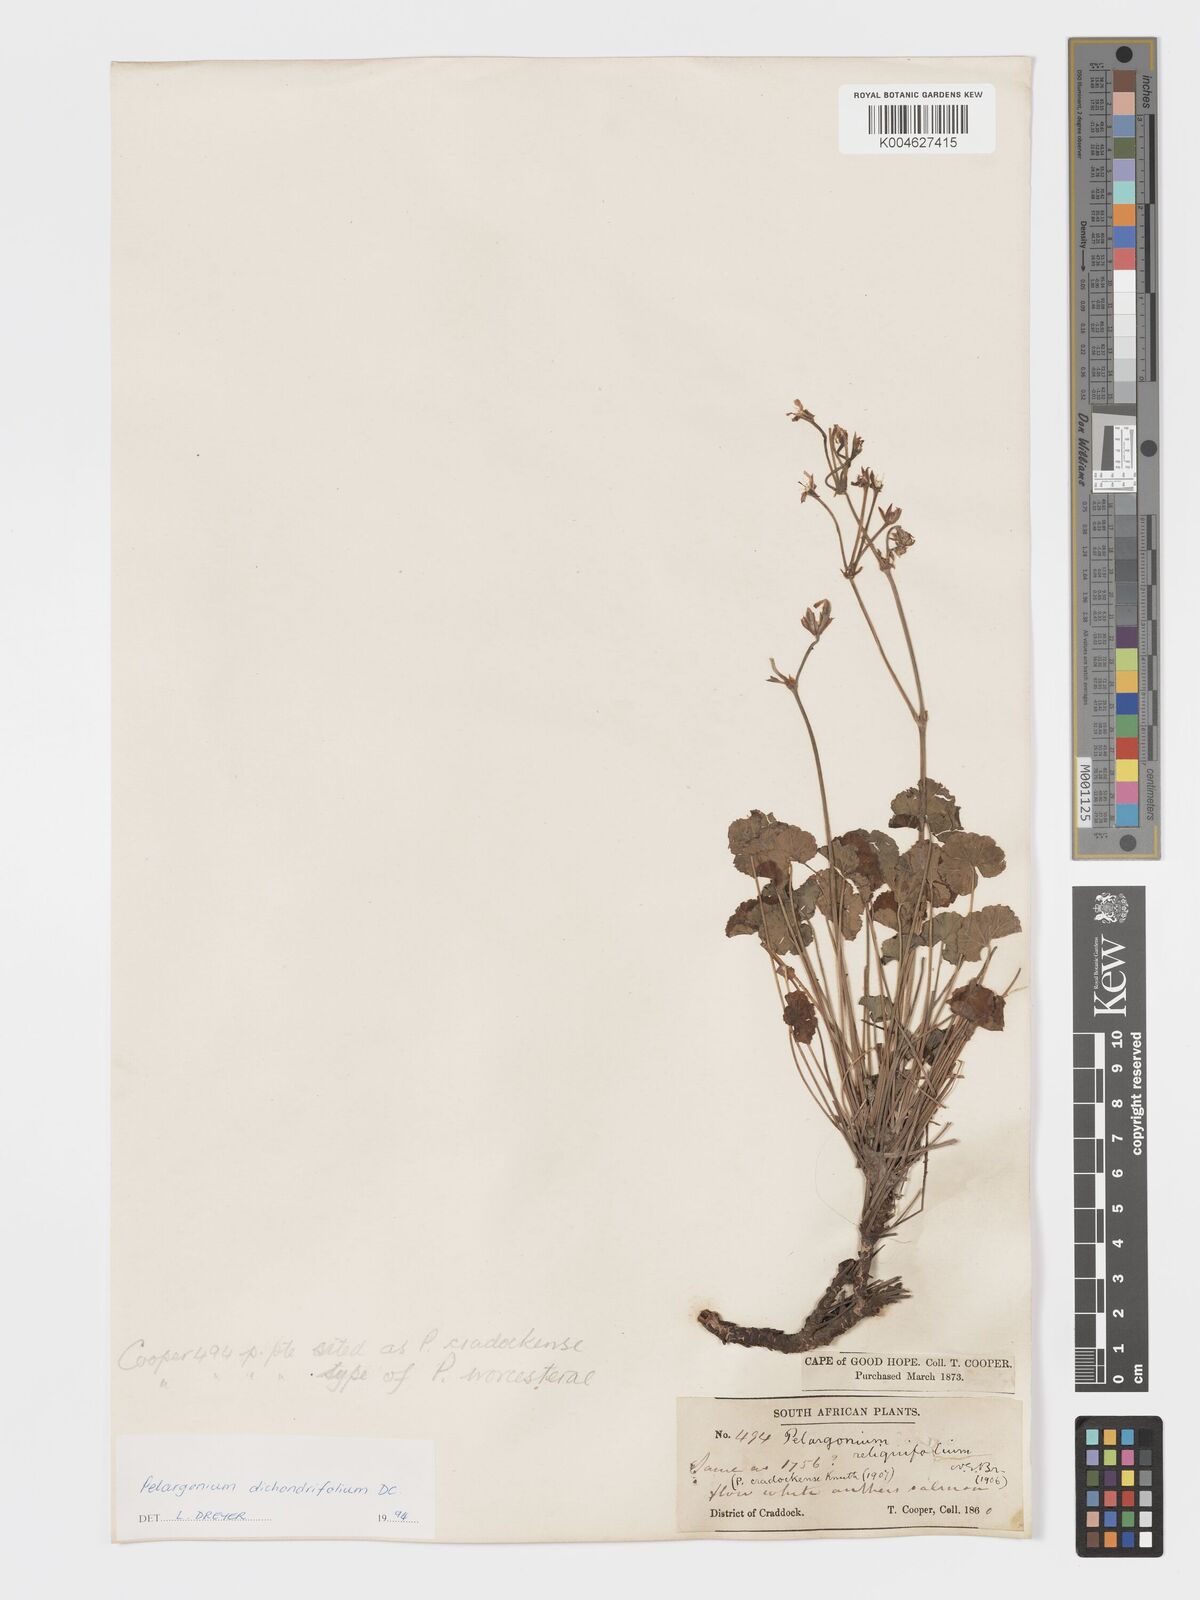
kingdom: Plantae
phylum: Tracheophyta
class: Magnoliopsida
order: Geraniales
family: Geraniaceae
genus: Pelargonium
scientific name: Pelargonium dichondrifolium
